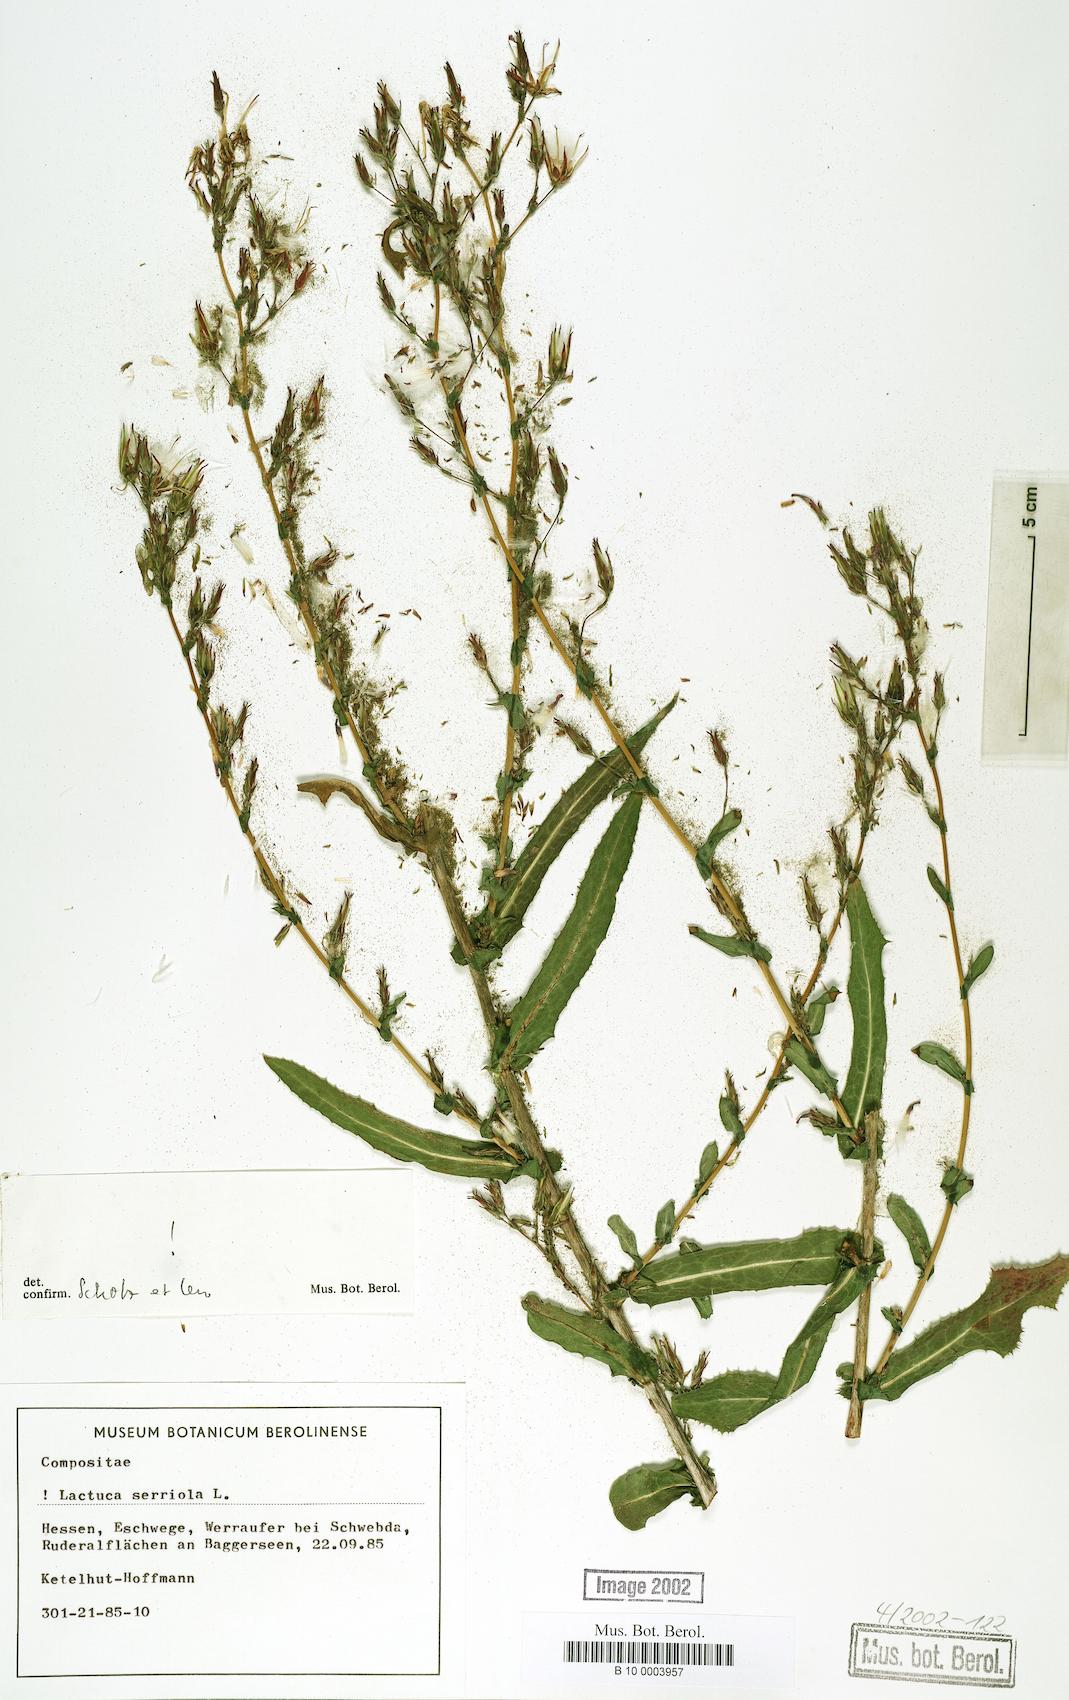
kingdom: Plantae
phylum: Tracheophyta
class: Magnoliopsida
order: Asterales
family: Asteraceae
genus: Lactuca
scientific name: Lactuca serriola
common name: Prickly lettuce
